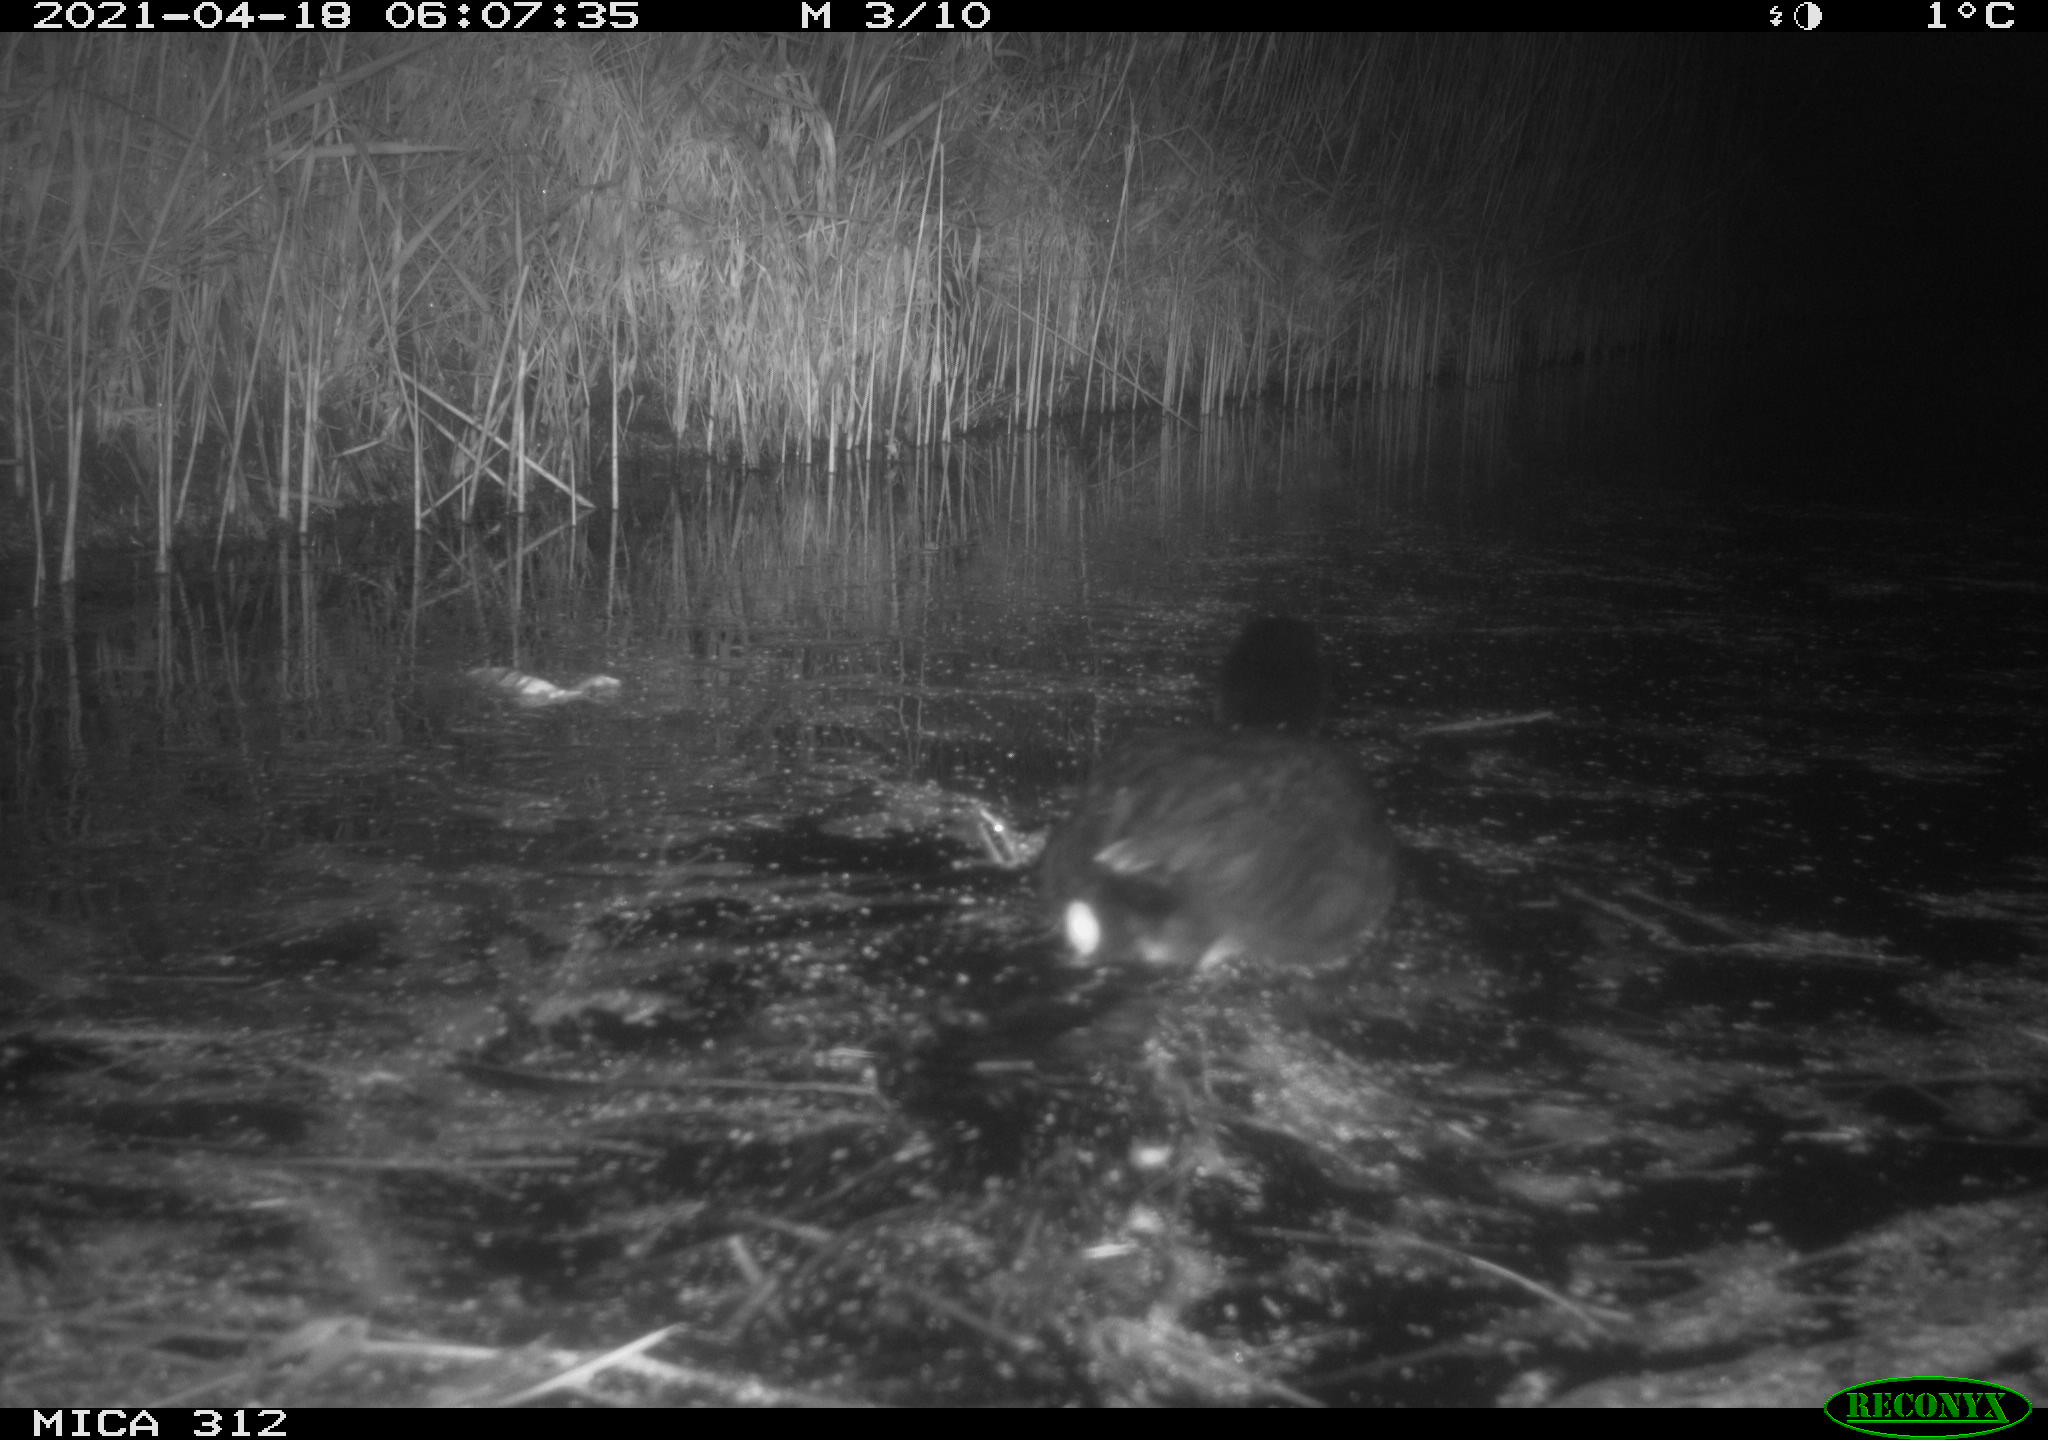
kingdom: Animalia
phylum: Chordata
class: Aves
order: Gruiformes
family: Rallidae
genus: Fulica
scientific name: Fulica atra
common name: Eurasian coot
